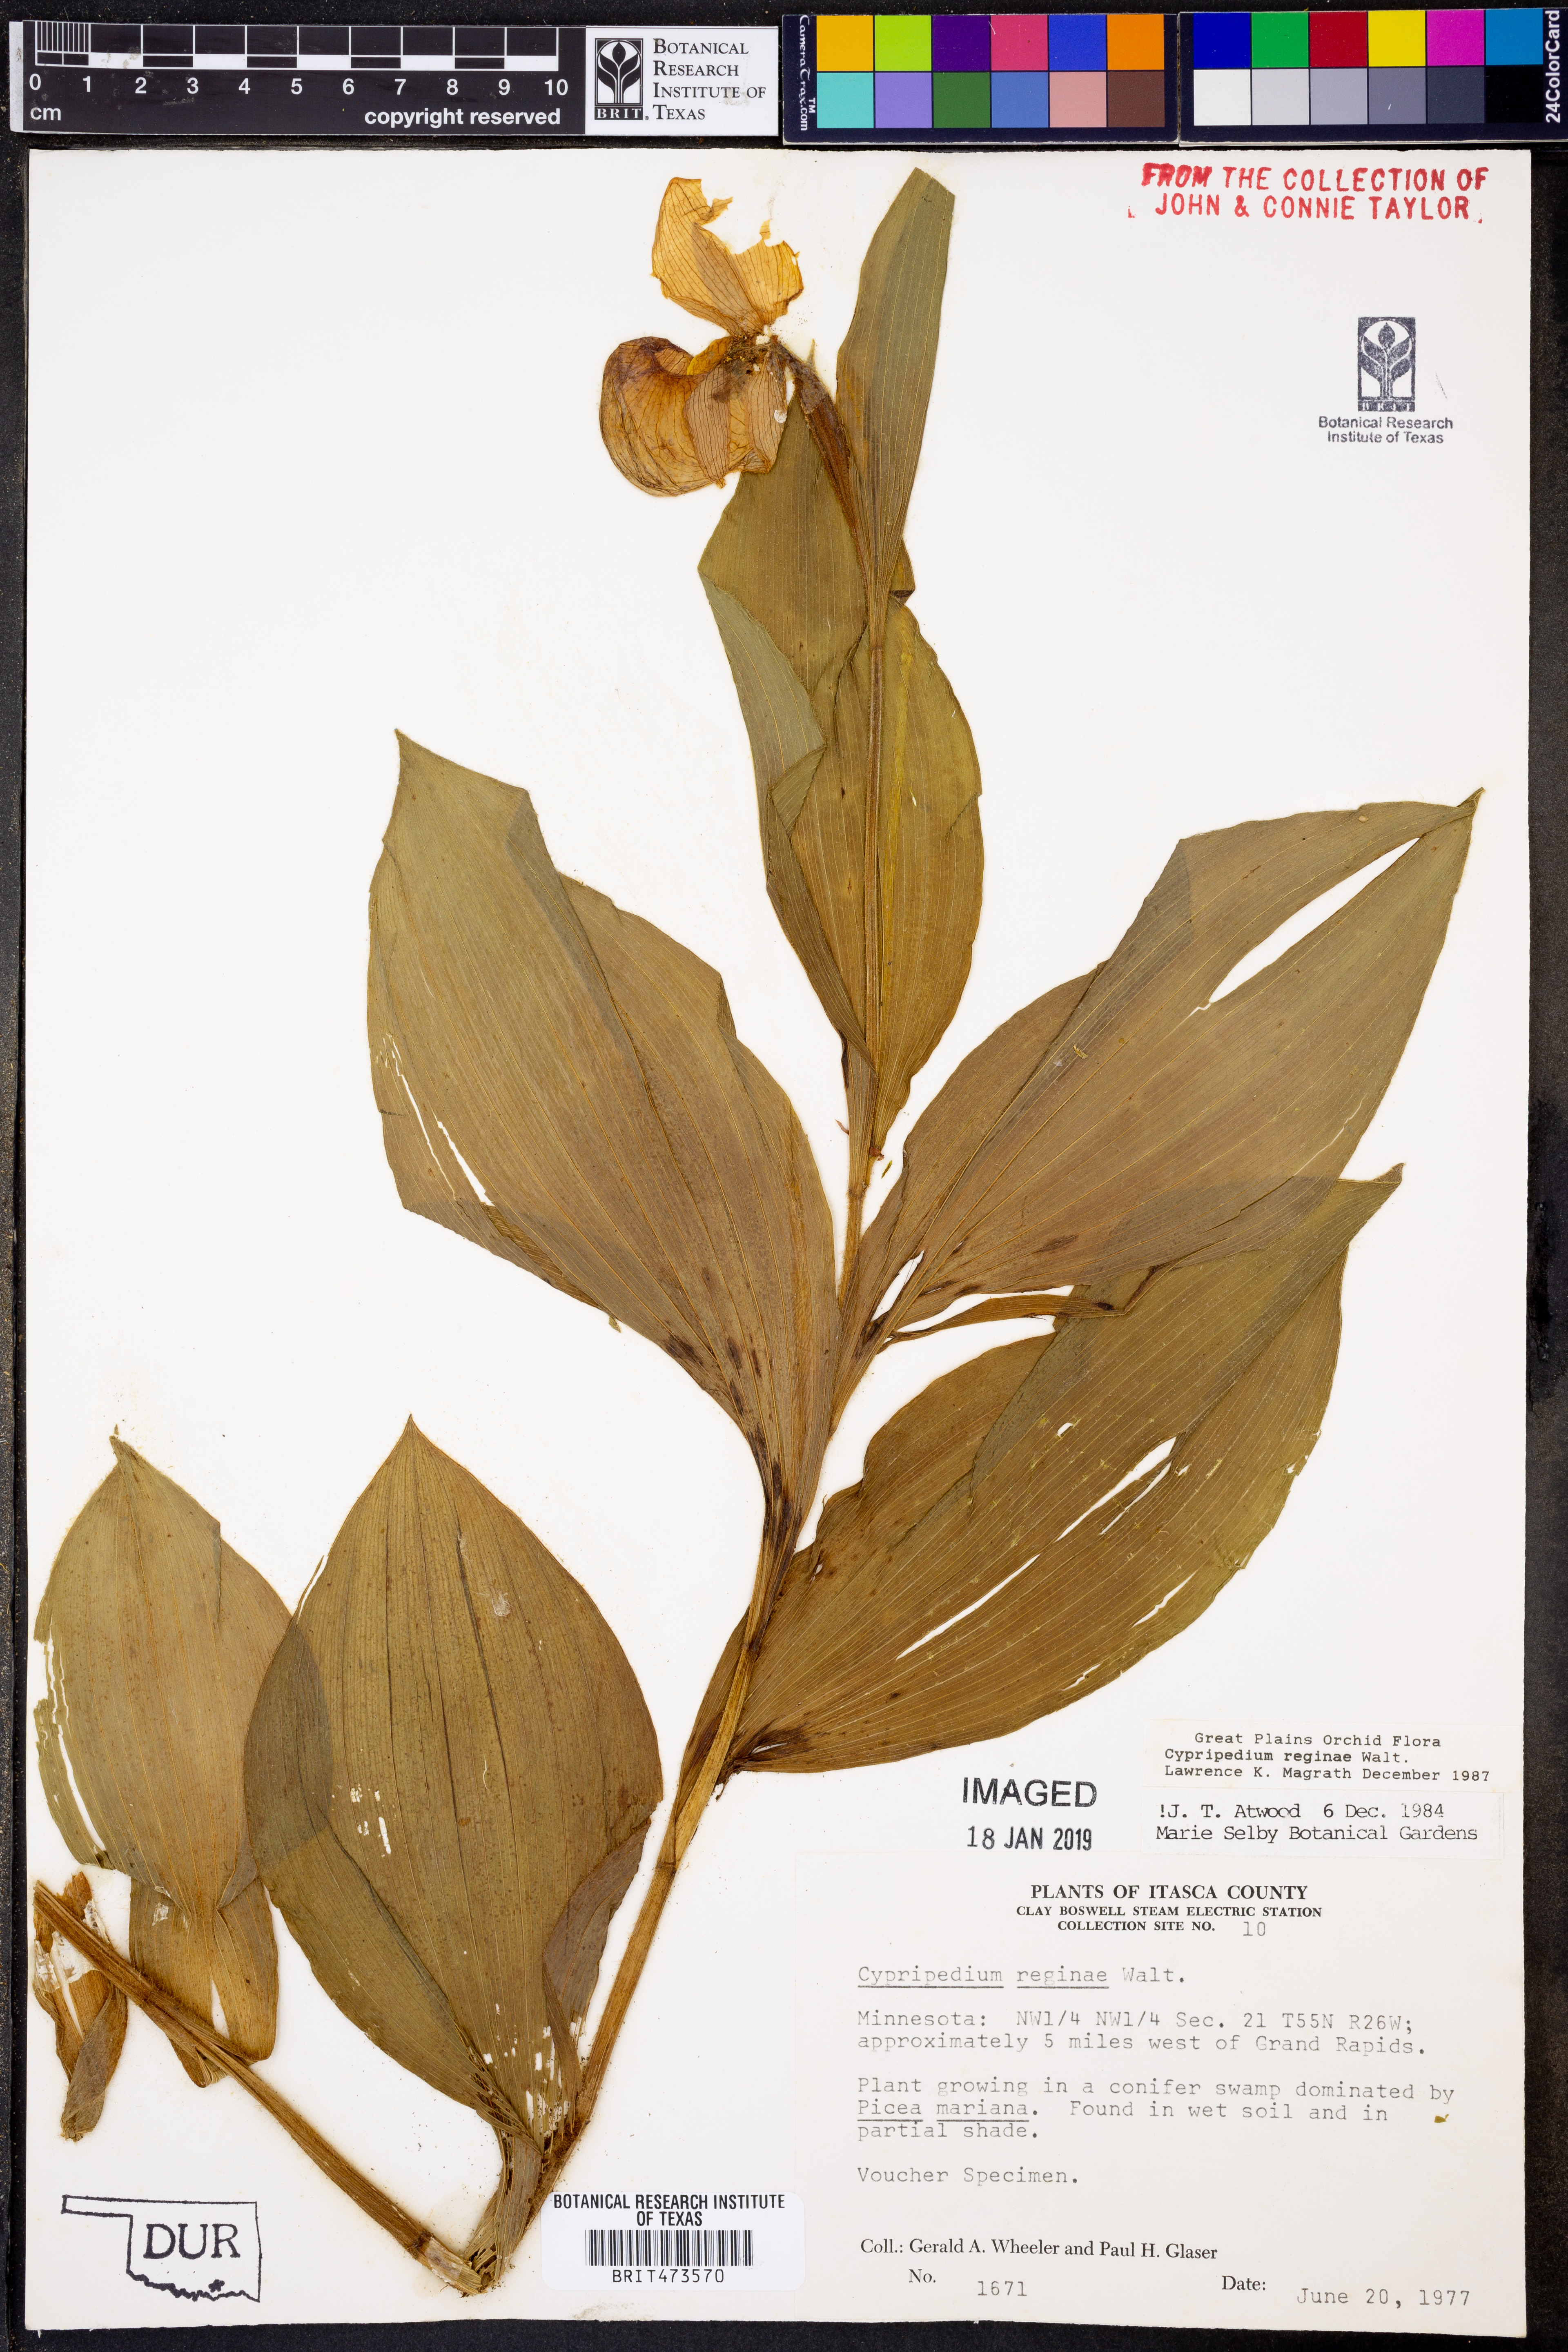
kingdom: Plantae
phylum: Tracheophyta
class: Liliopsida
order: Asparagales
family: Orchidaceae
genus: Cypripedium
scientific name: Cypripedium reginae
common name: Queen lady's-slipper
